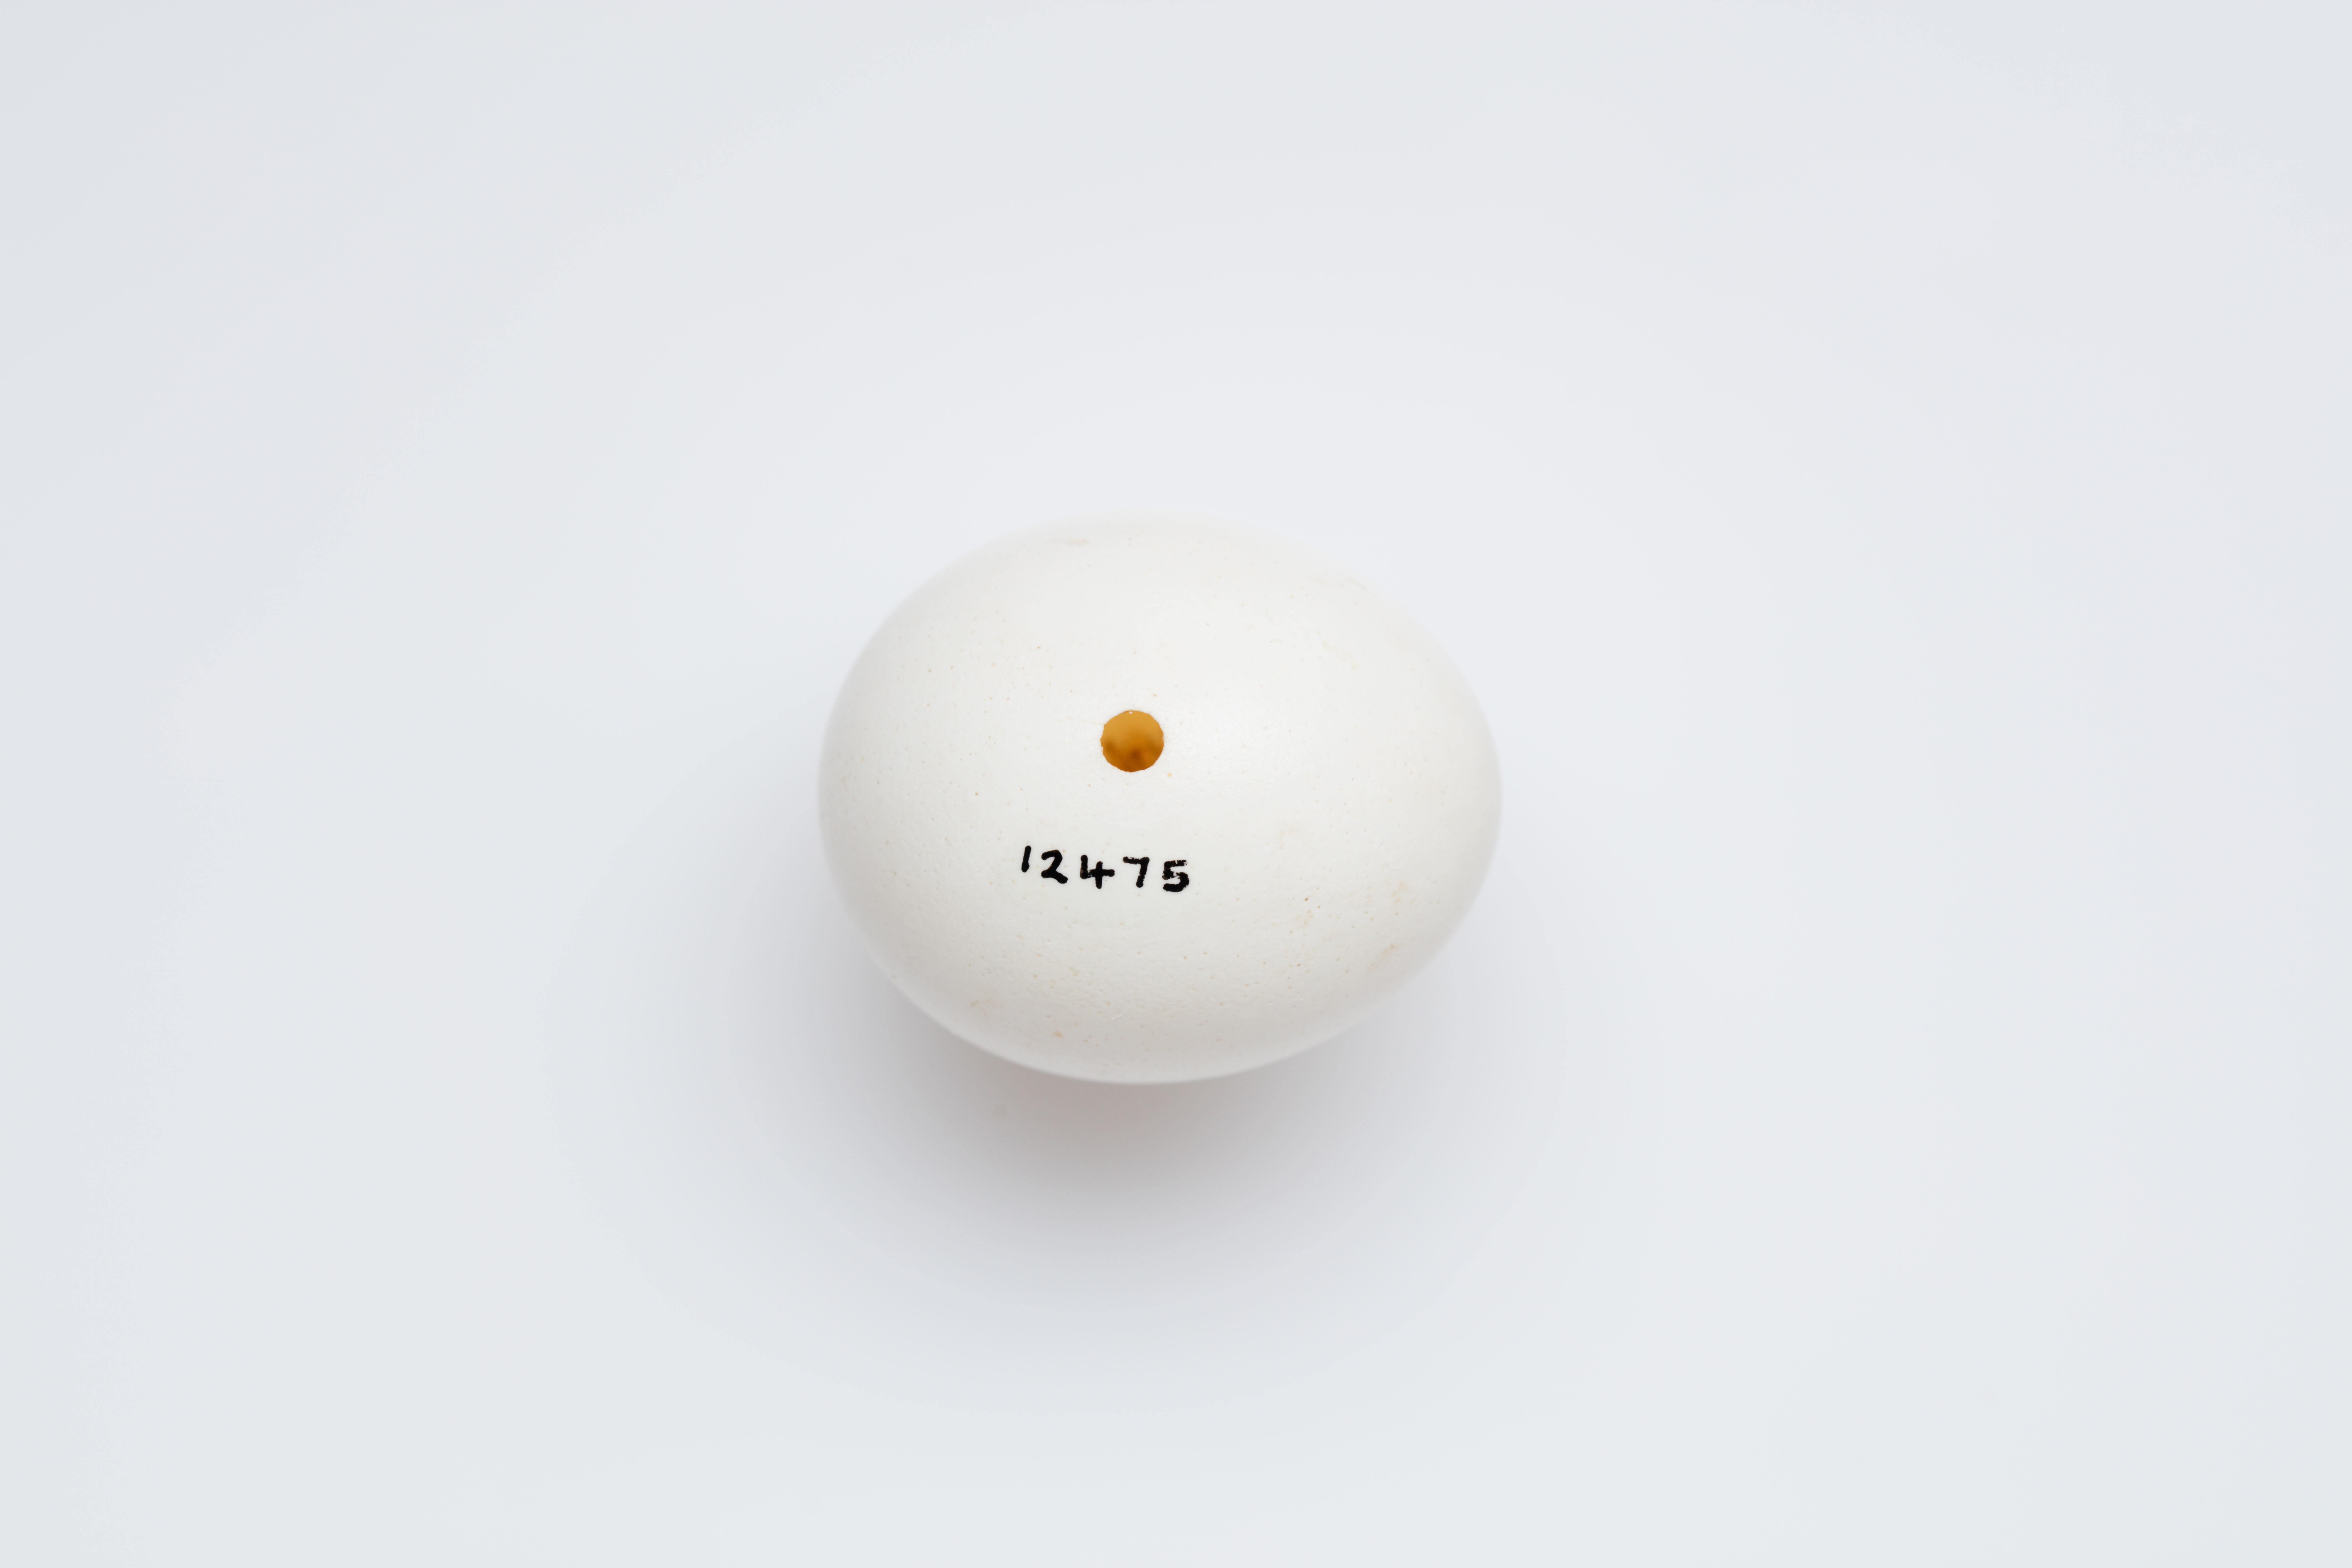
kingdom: Animalia
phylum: Chordata
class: Aves
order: Strigiformes
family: Strigidae
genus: Athene
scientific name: Athene noctua
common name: Little owl
